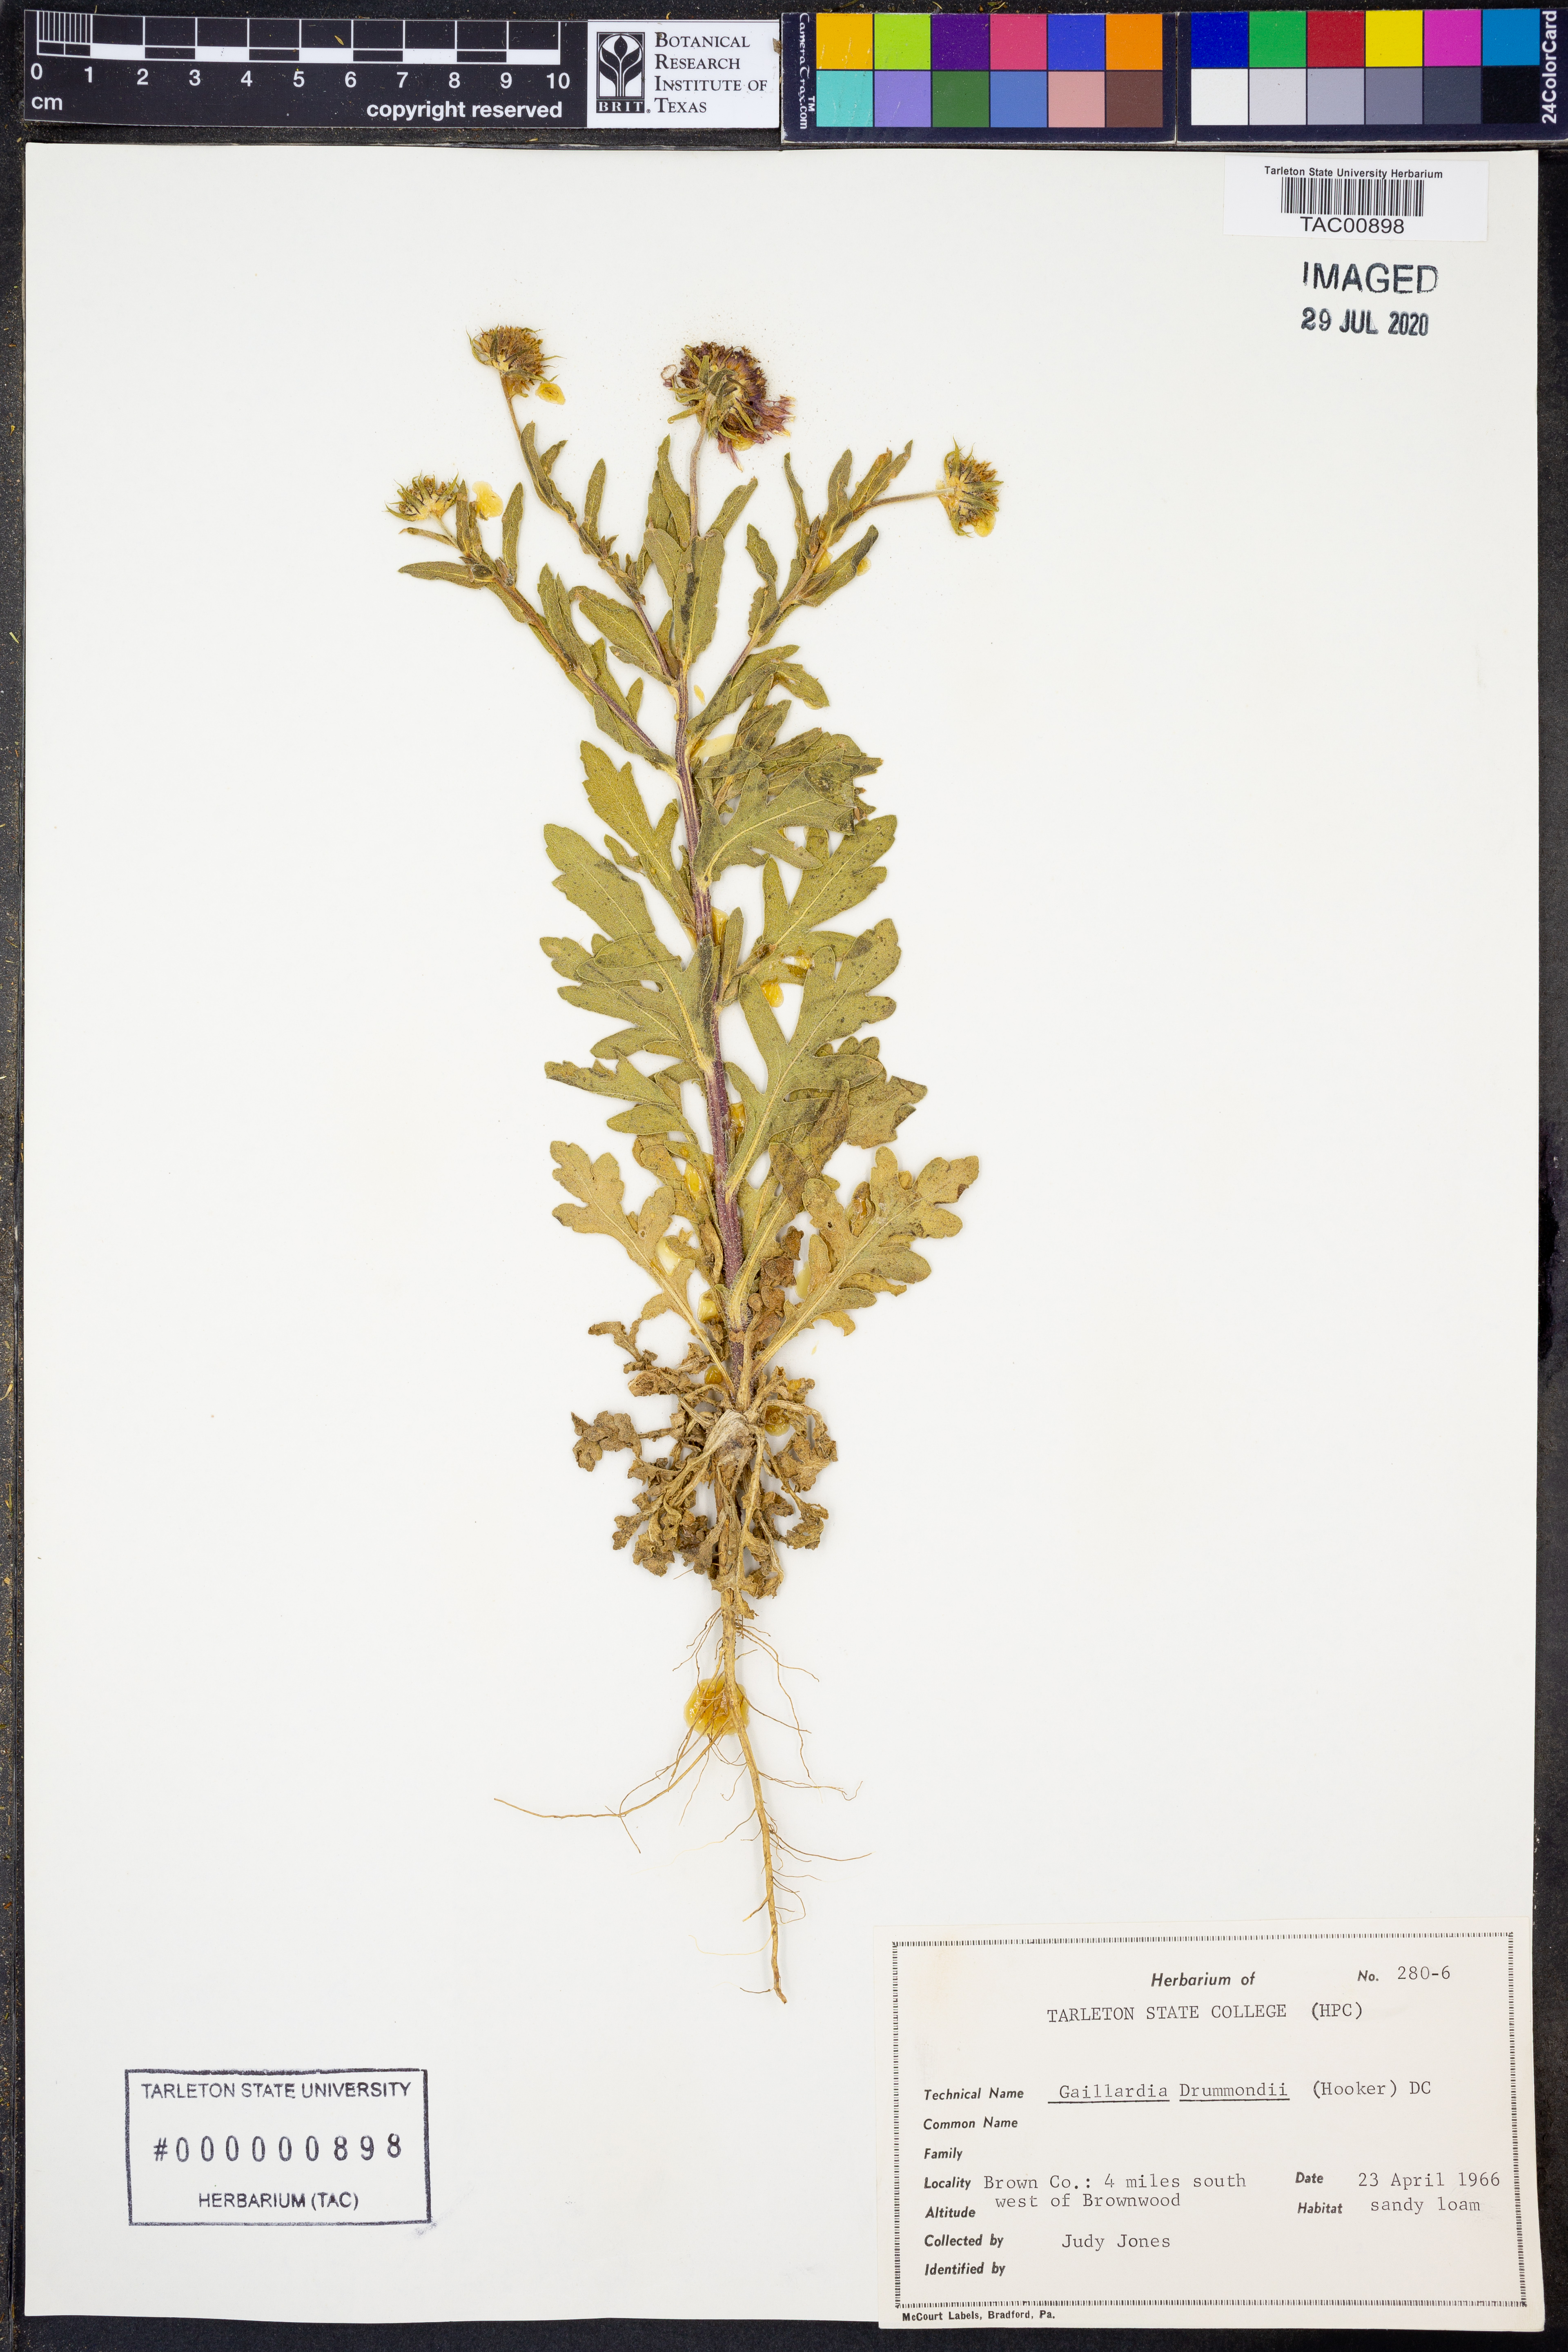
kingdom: Plantae
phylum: Tracheophyta
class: Magnoliopsida
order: Asterales
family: Asteraceae
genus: Gaillardia
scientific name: Gaillardia pulchella
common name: Firewheel
